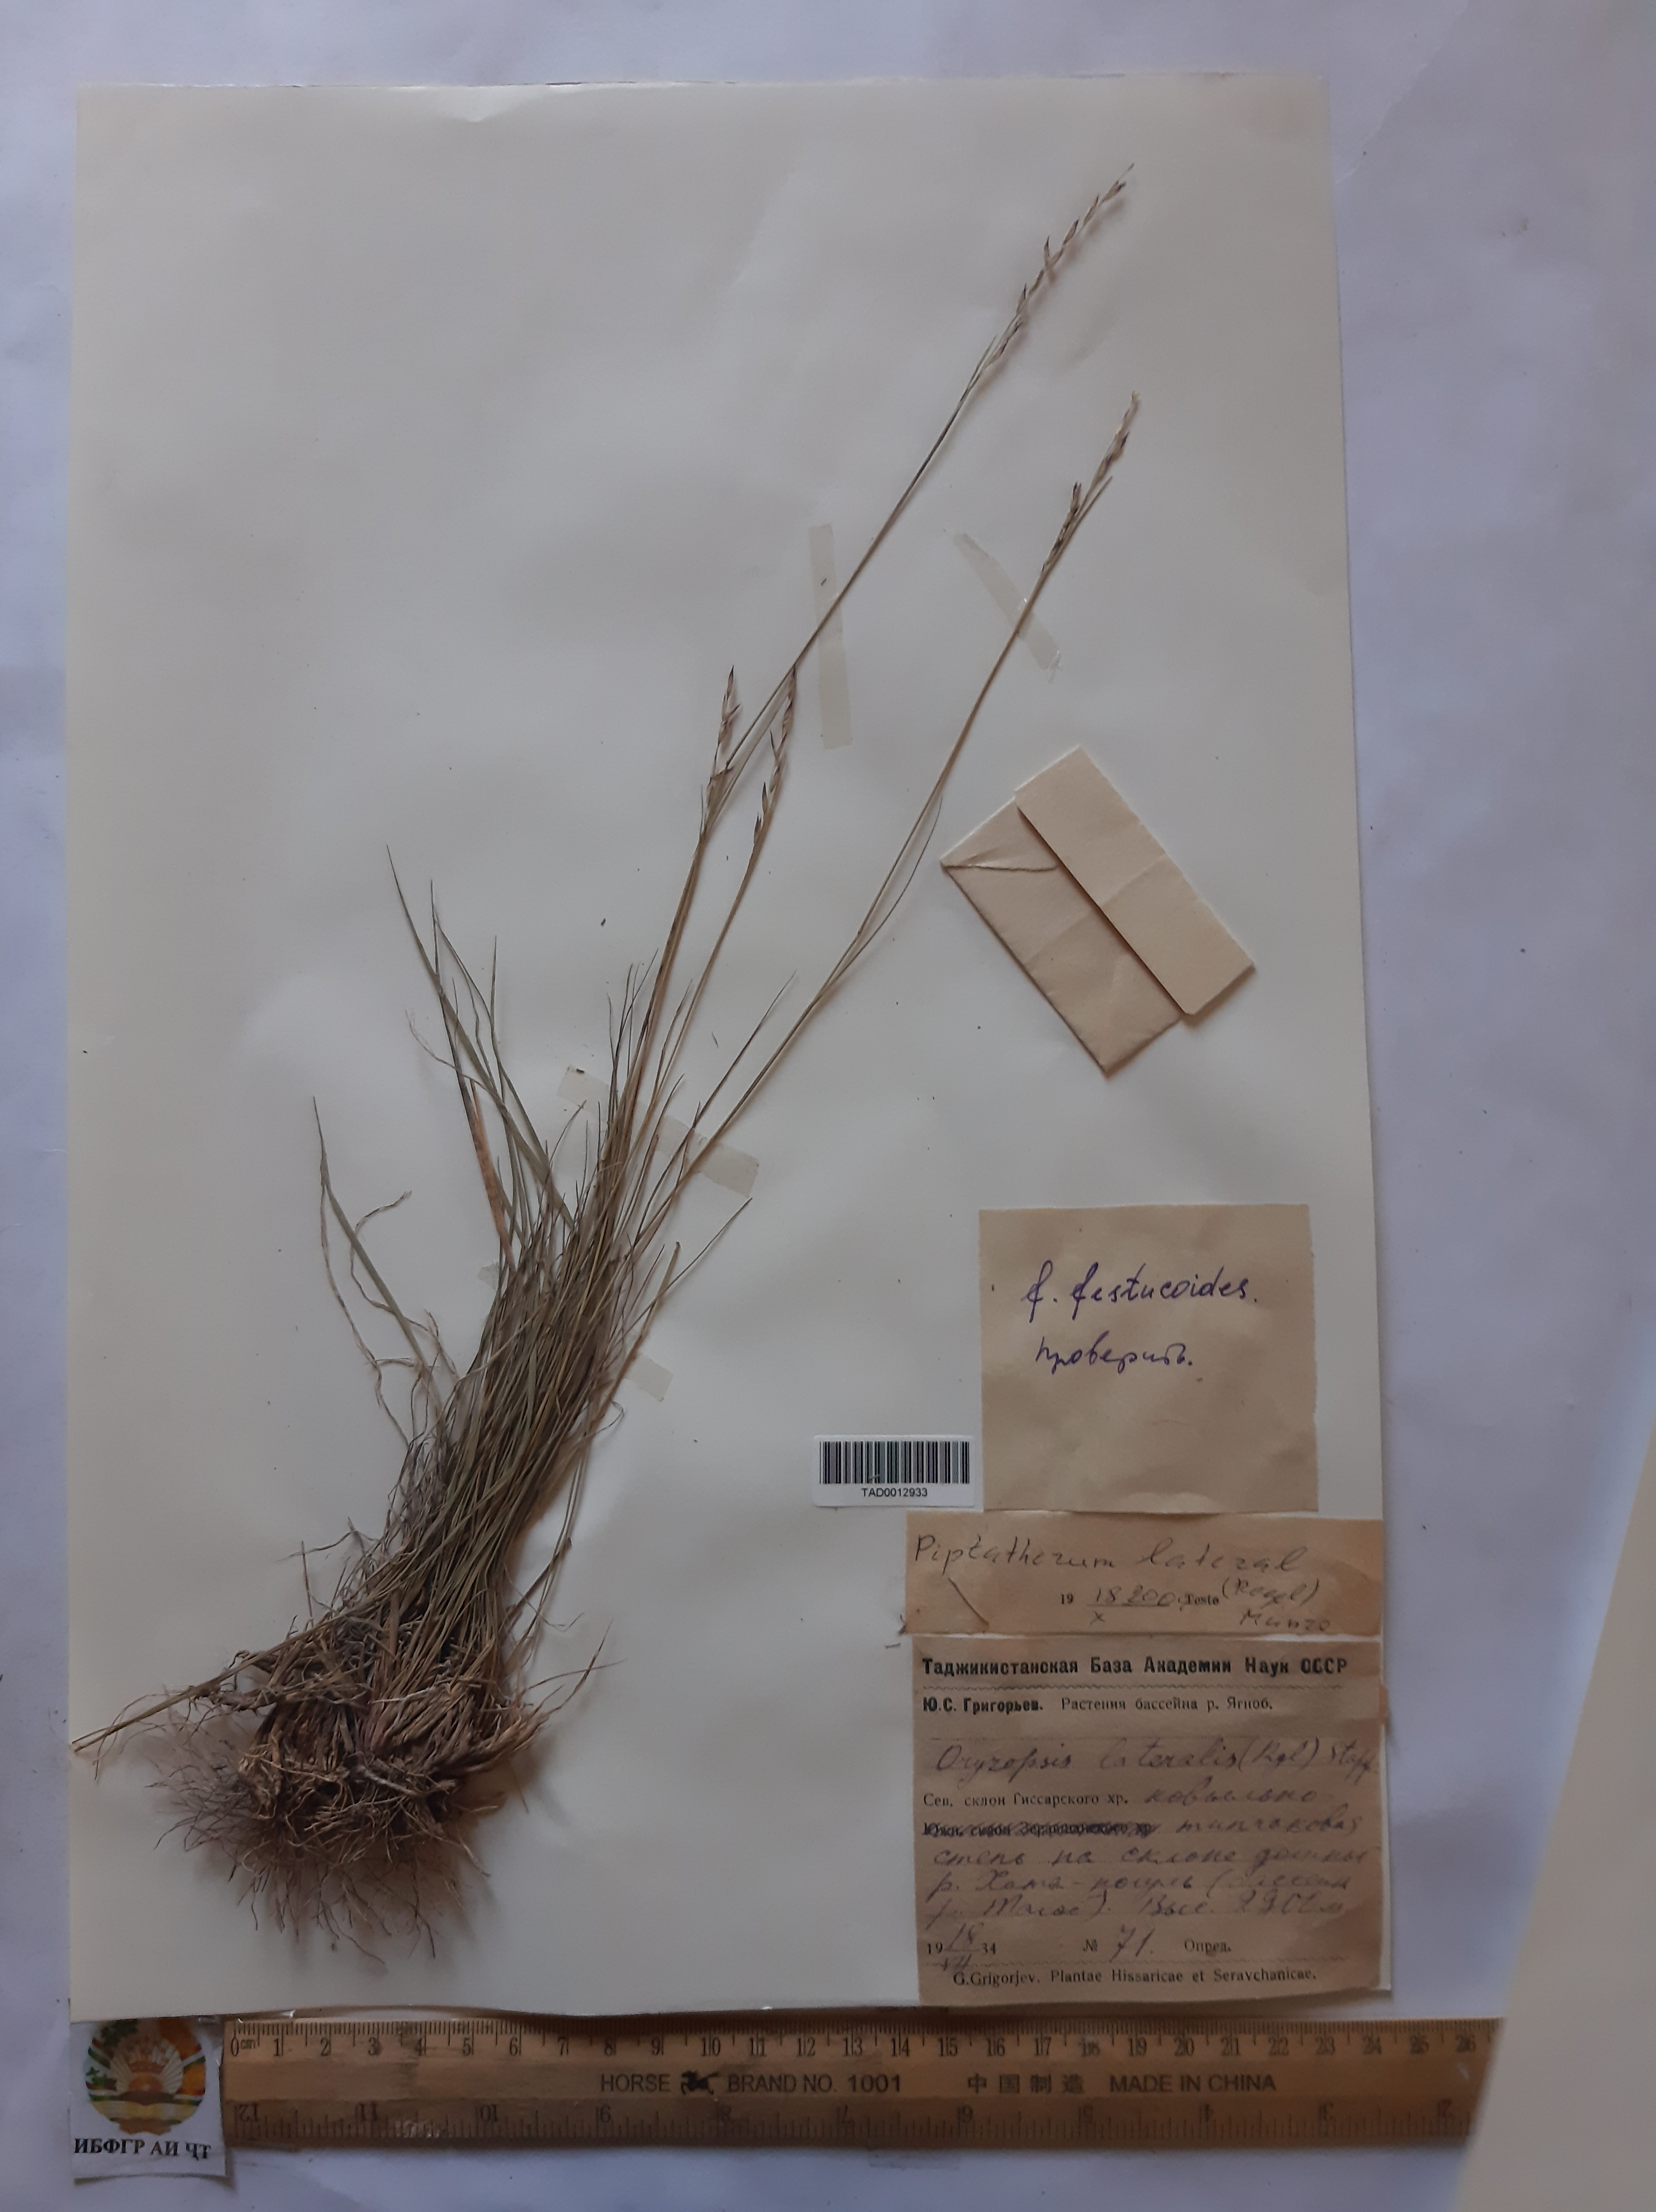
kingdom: Plantae
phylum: Tracheophyta
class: Liliopsida
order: Poales
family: Poaceae
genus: Piptatherum
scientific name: Piptatherum laterale
